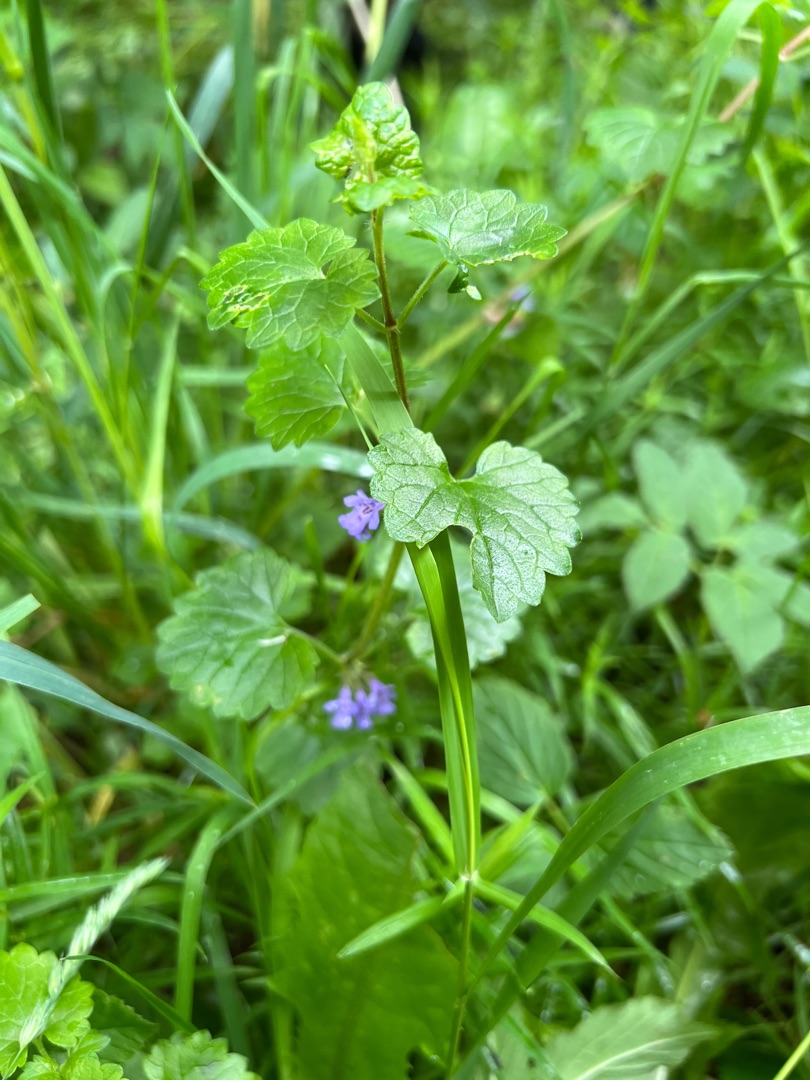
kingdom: Plantae
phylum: Tracheophyta
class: Magnoliopsida
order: Lamiales
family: Lamiaceae
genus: Glechoma
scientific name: Glechoma hederacea
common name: Korsknap
